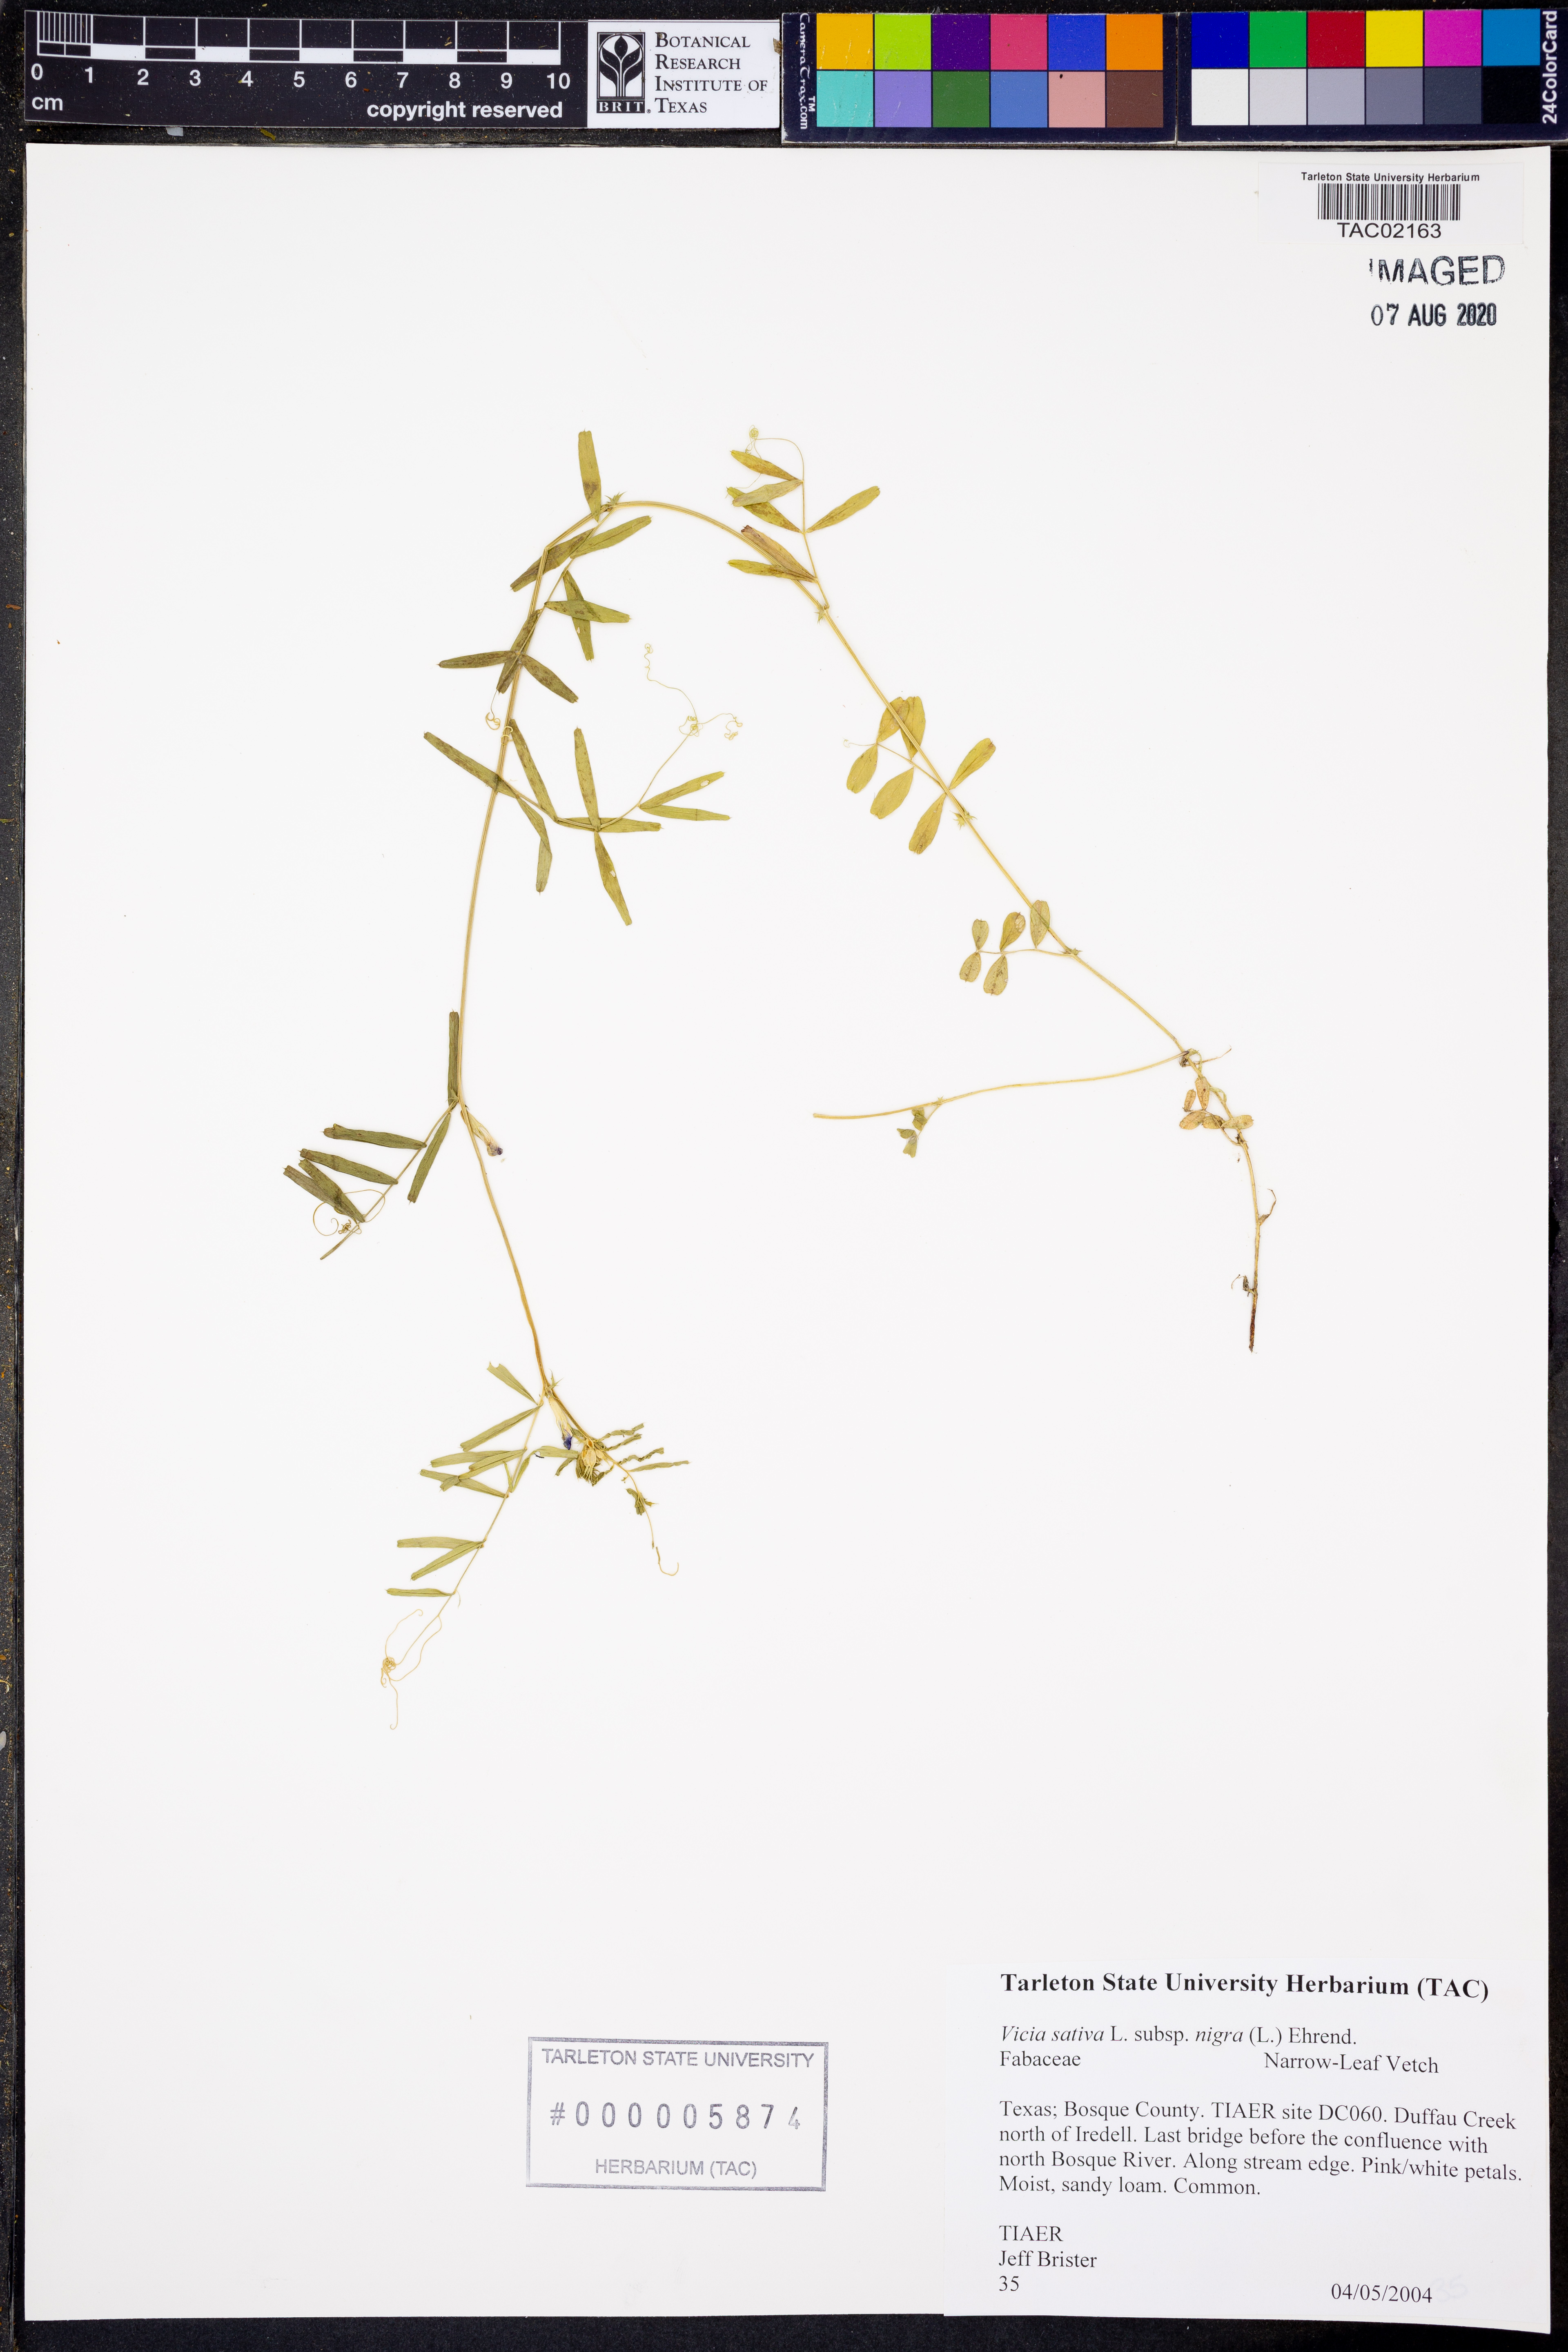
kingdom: Plantae
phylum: Tracheophyta
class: Magnoliopsida
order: Fabales
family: Fabaceae
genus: Vicia
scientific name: Vicia sativa
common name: Garden vetch
